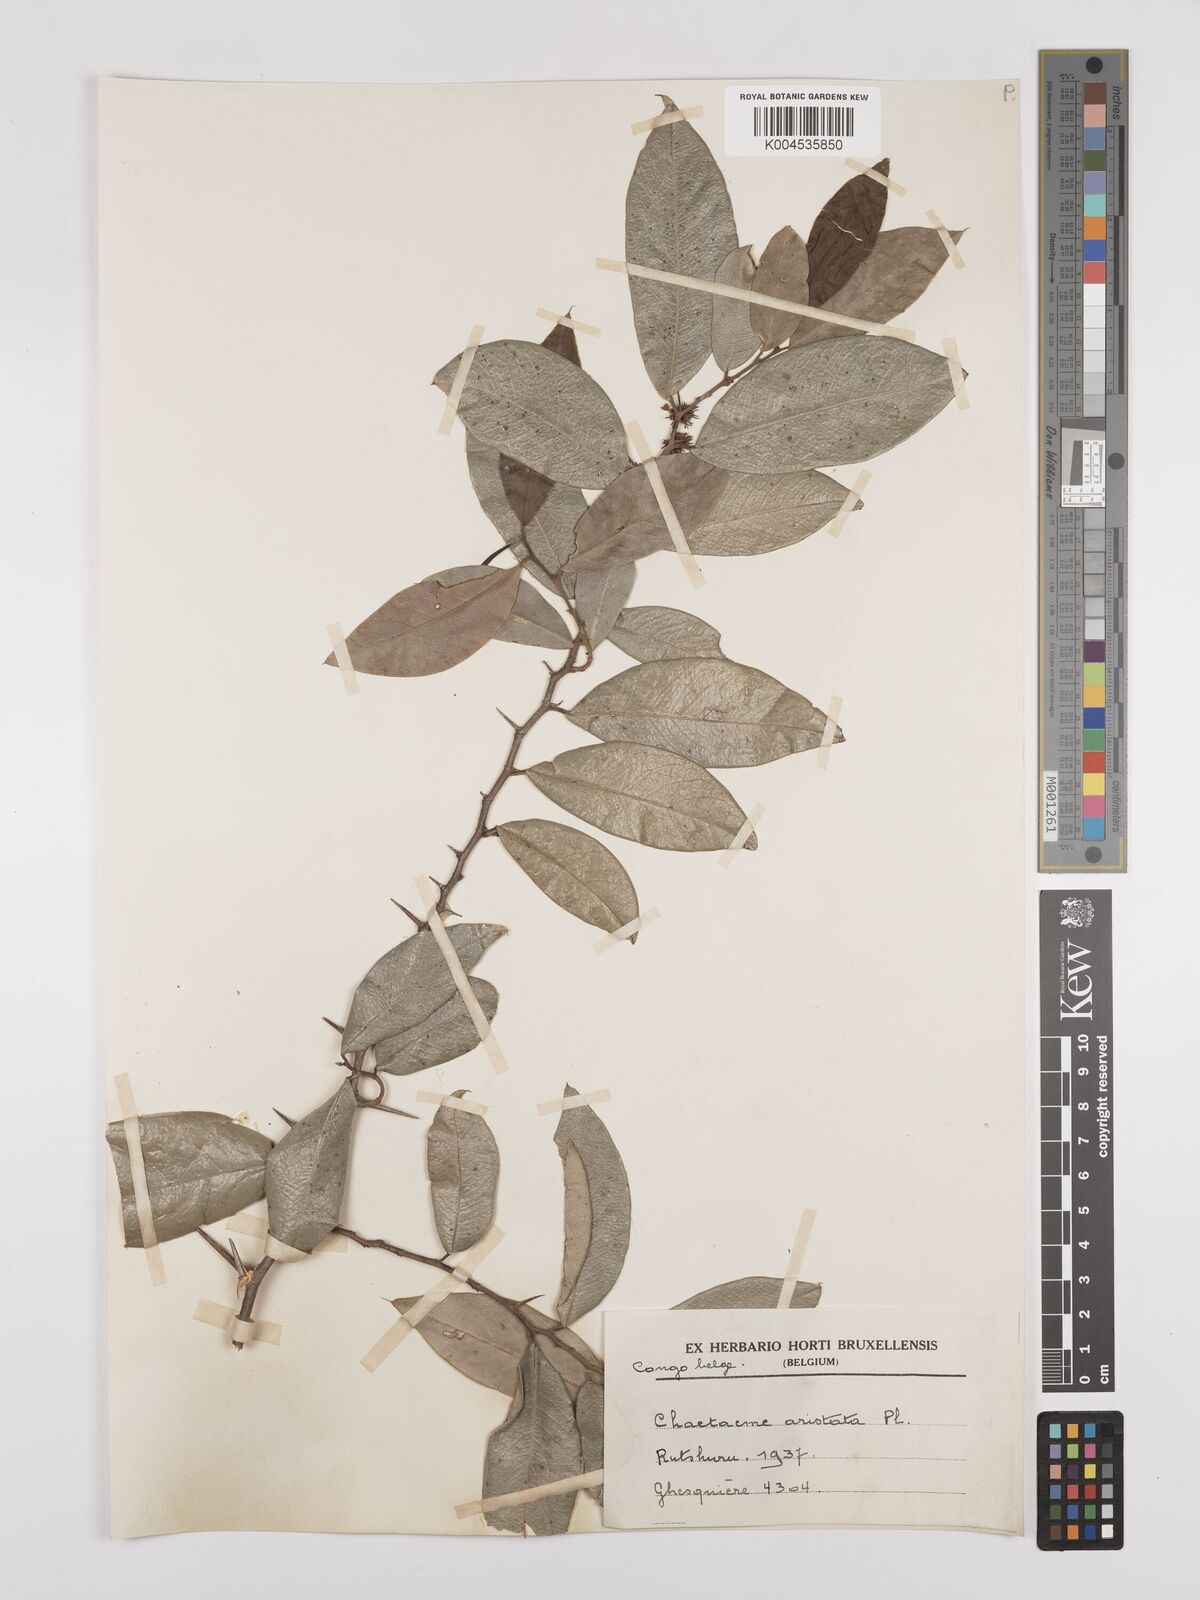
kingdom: Plantae
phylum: Tracheophyta
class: Magnoliopsida
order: Rosales
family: Cannabaceae
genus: Chaetachme
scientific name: Chaetachme aristata
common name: Thorny elm
